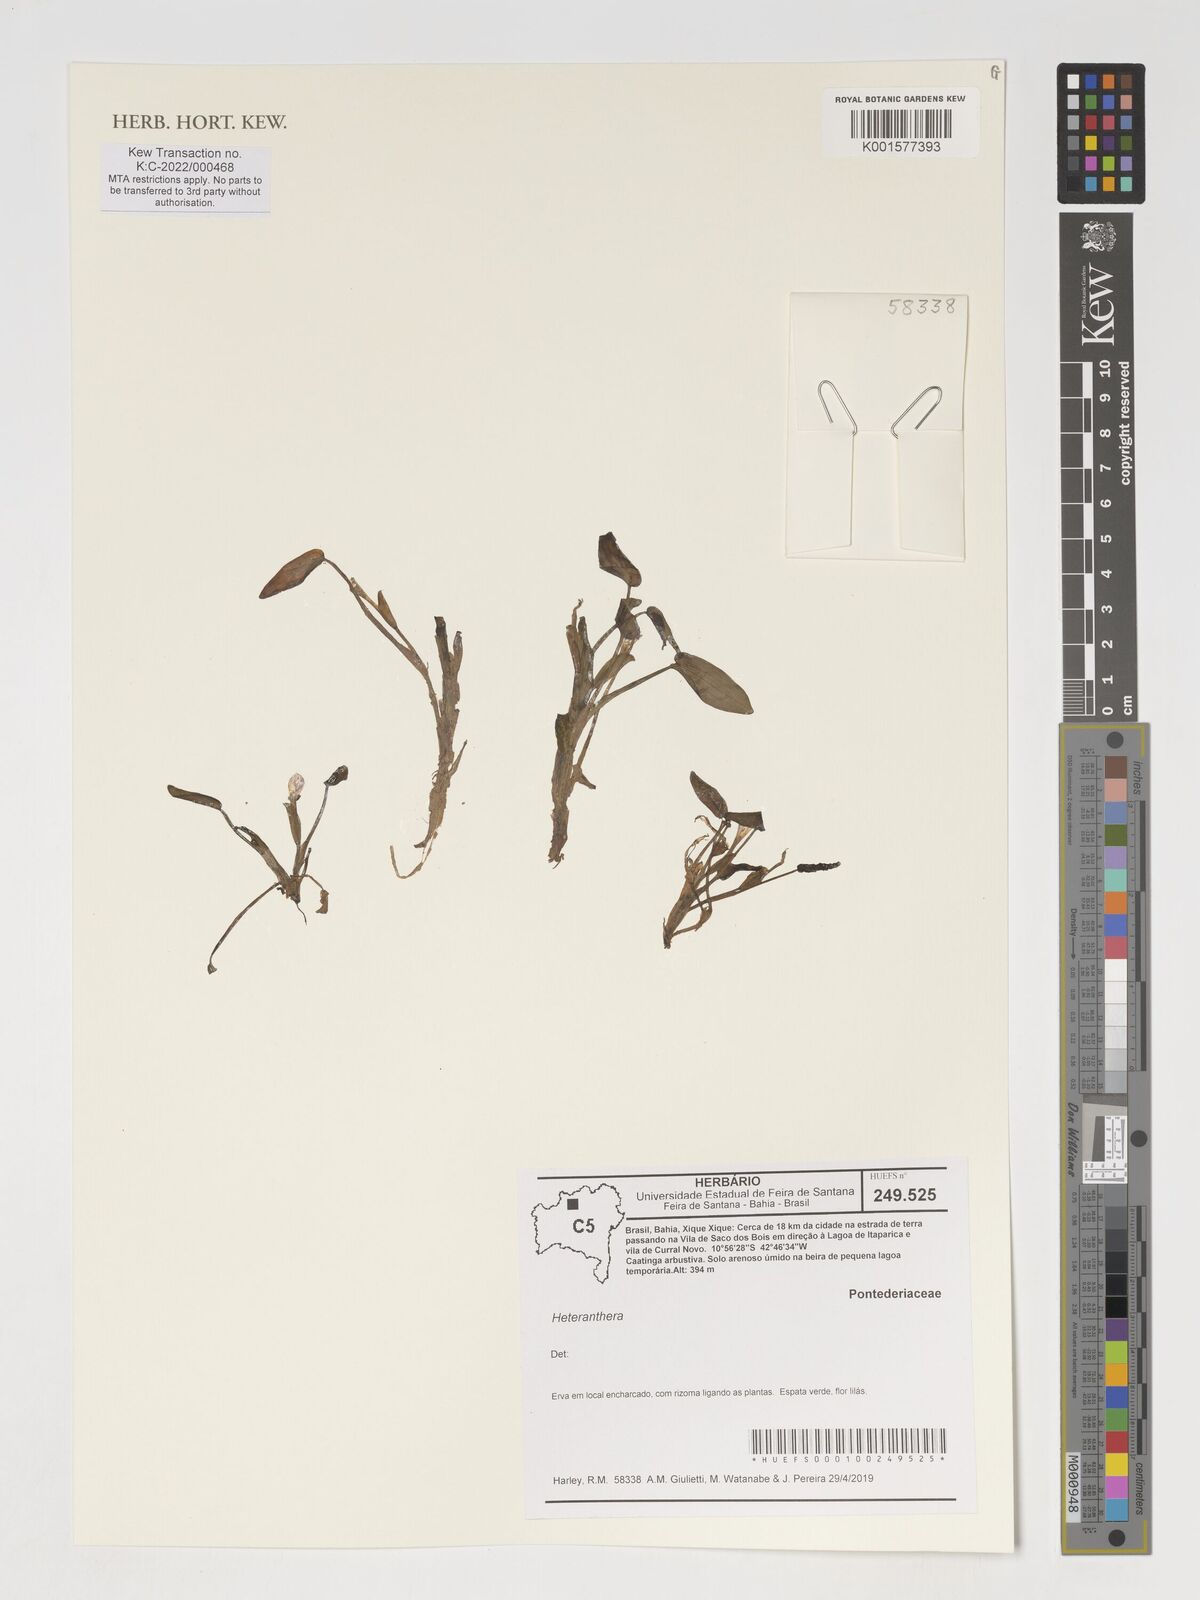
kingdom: Plantae
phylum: Tracheophyta
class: Liliopsida
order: Commelinales
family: Pontederiaceae
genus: Heteranthera
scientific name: Heteranthera
